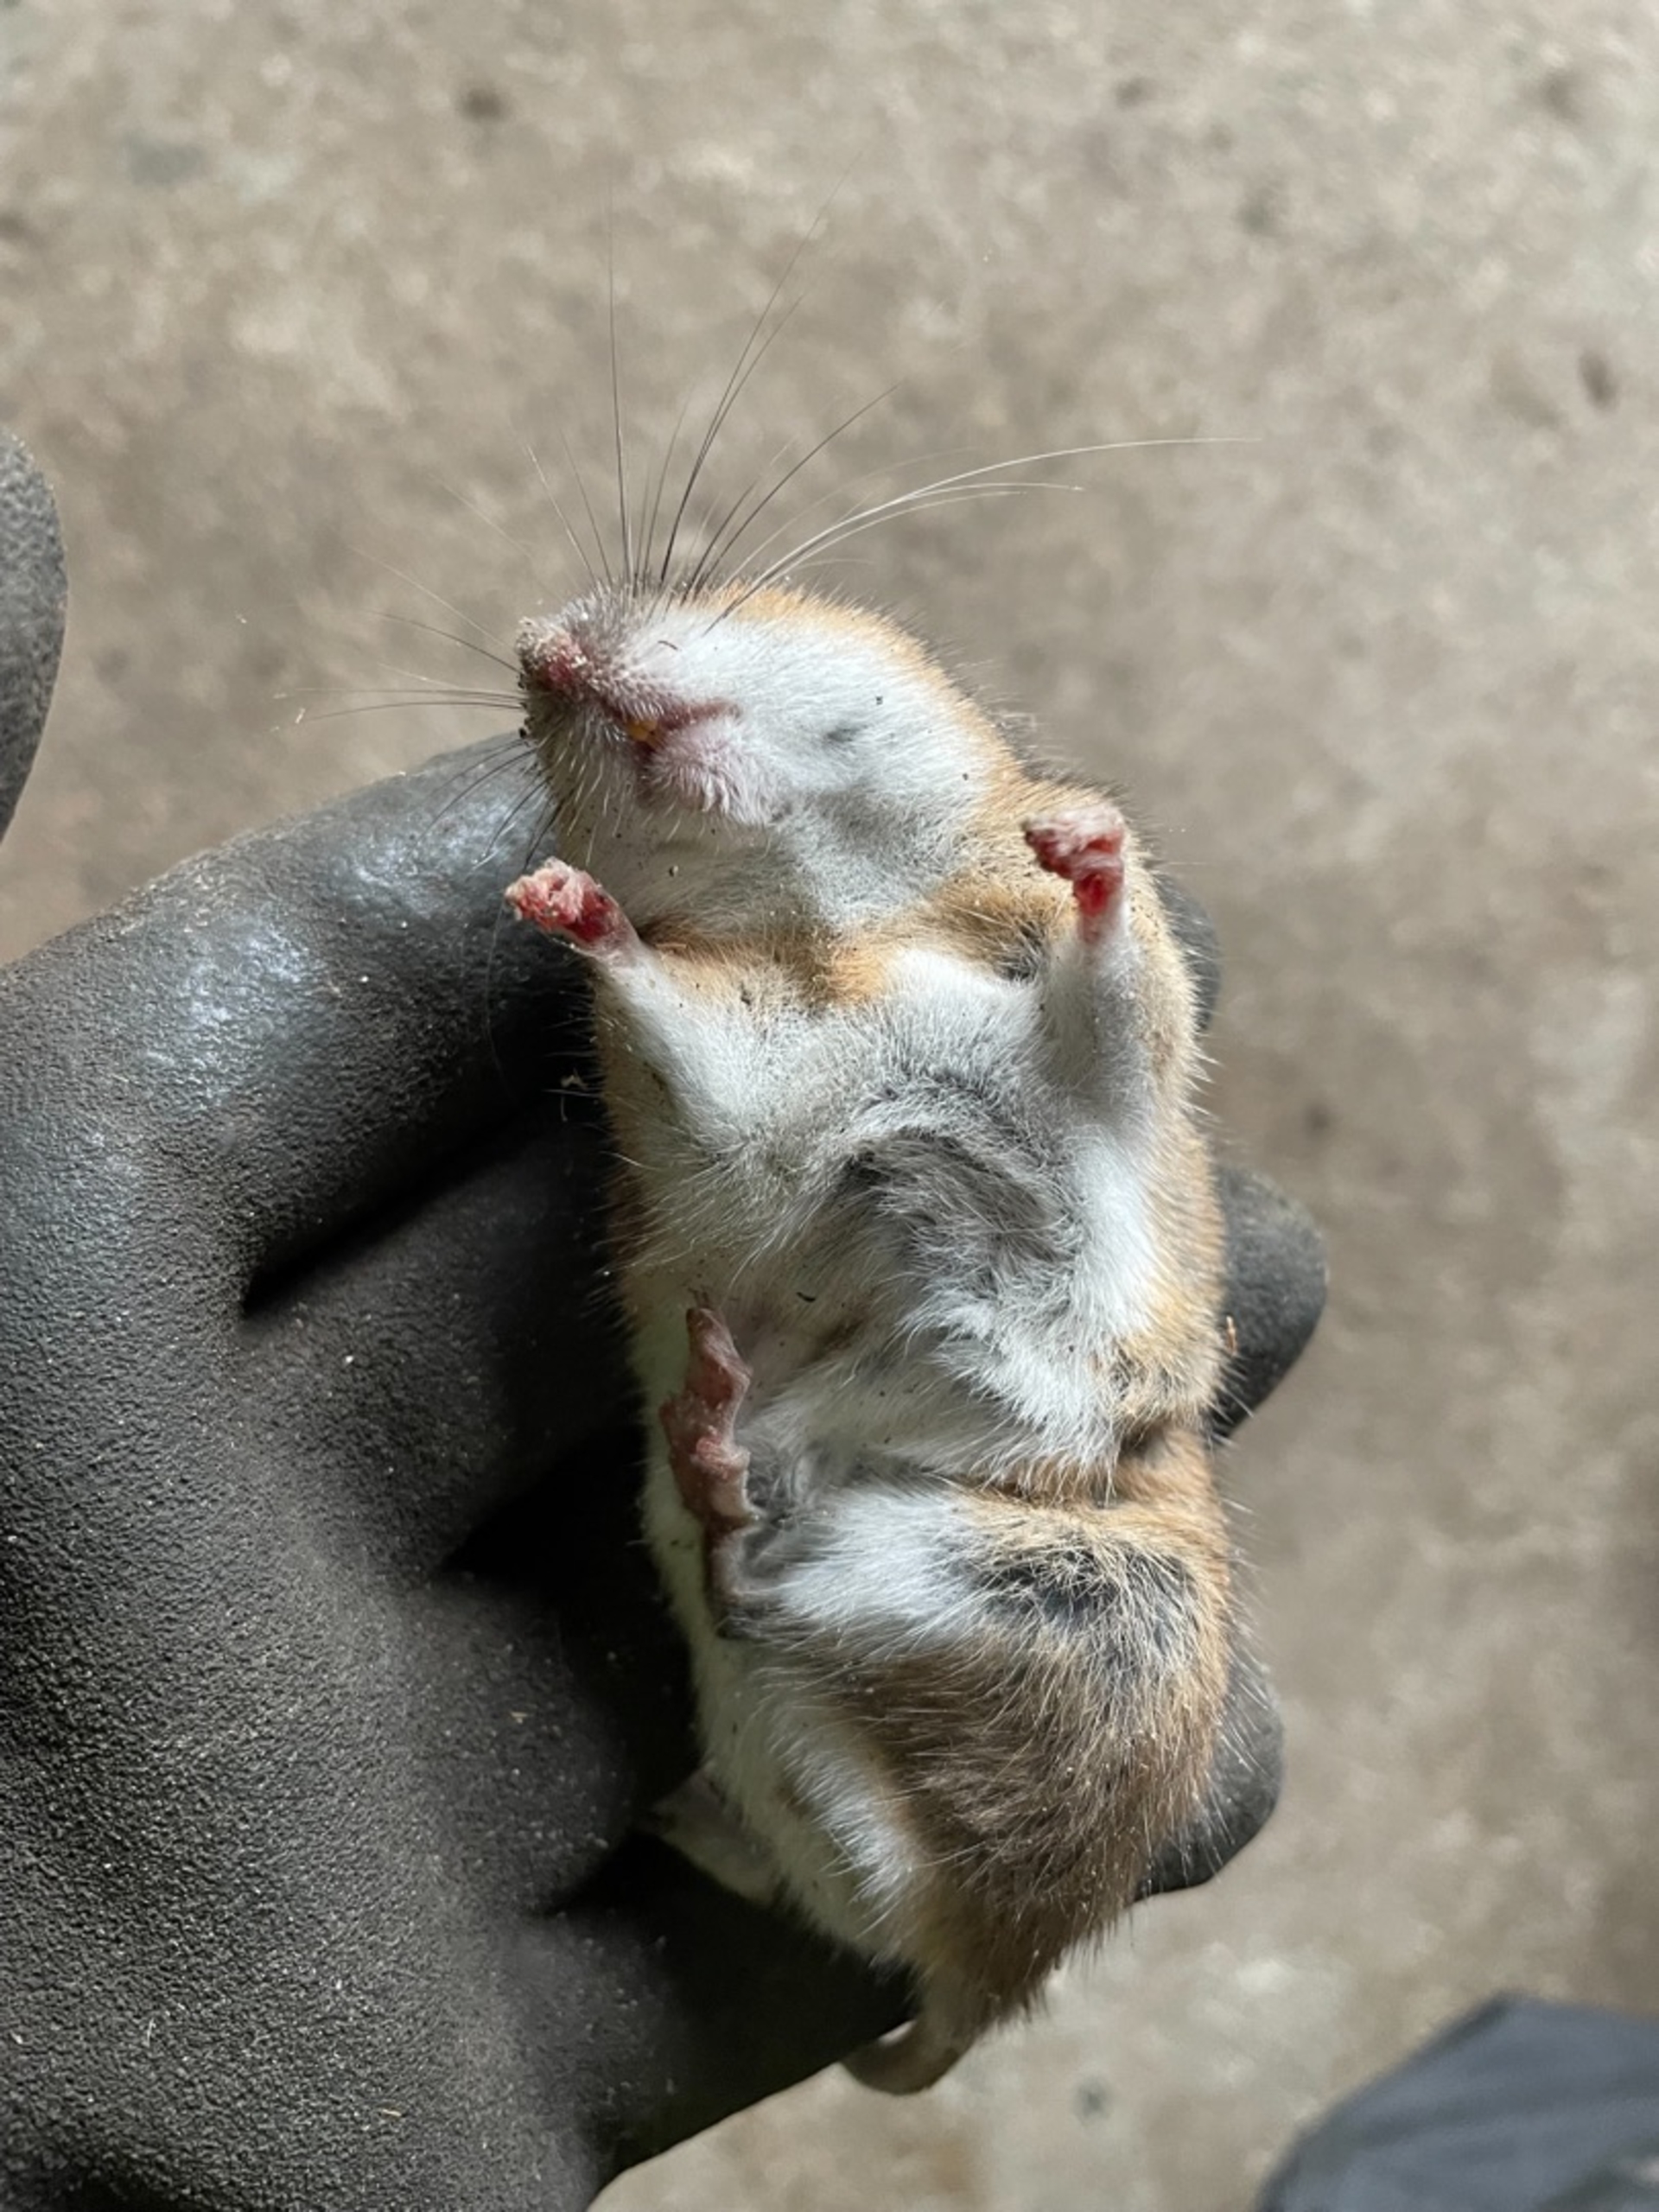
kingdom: Animalia
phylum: Chordata
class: Mammalia
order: Rodentia
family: Muridae
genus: Apodemus
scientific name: Apodemus flavicollis
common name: Halsbåndmus
